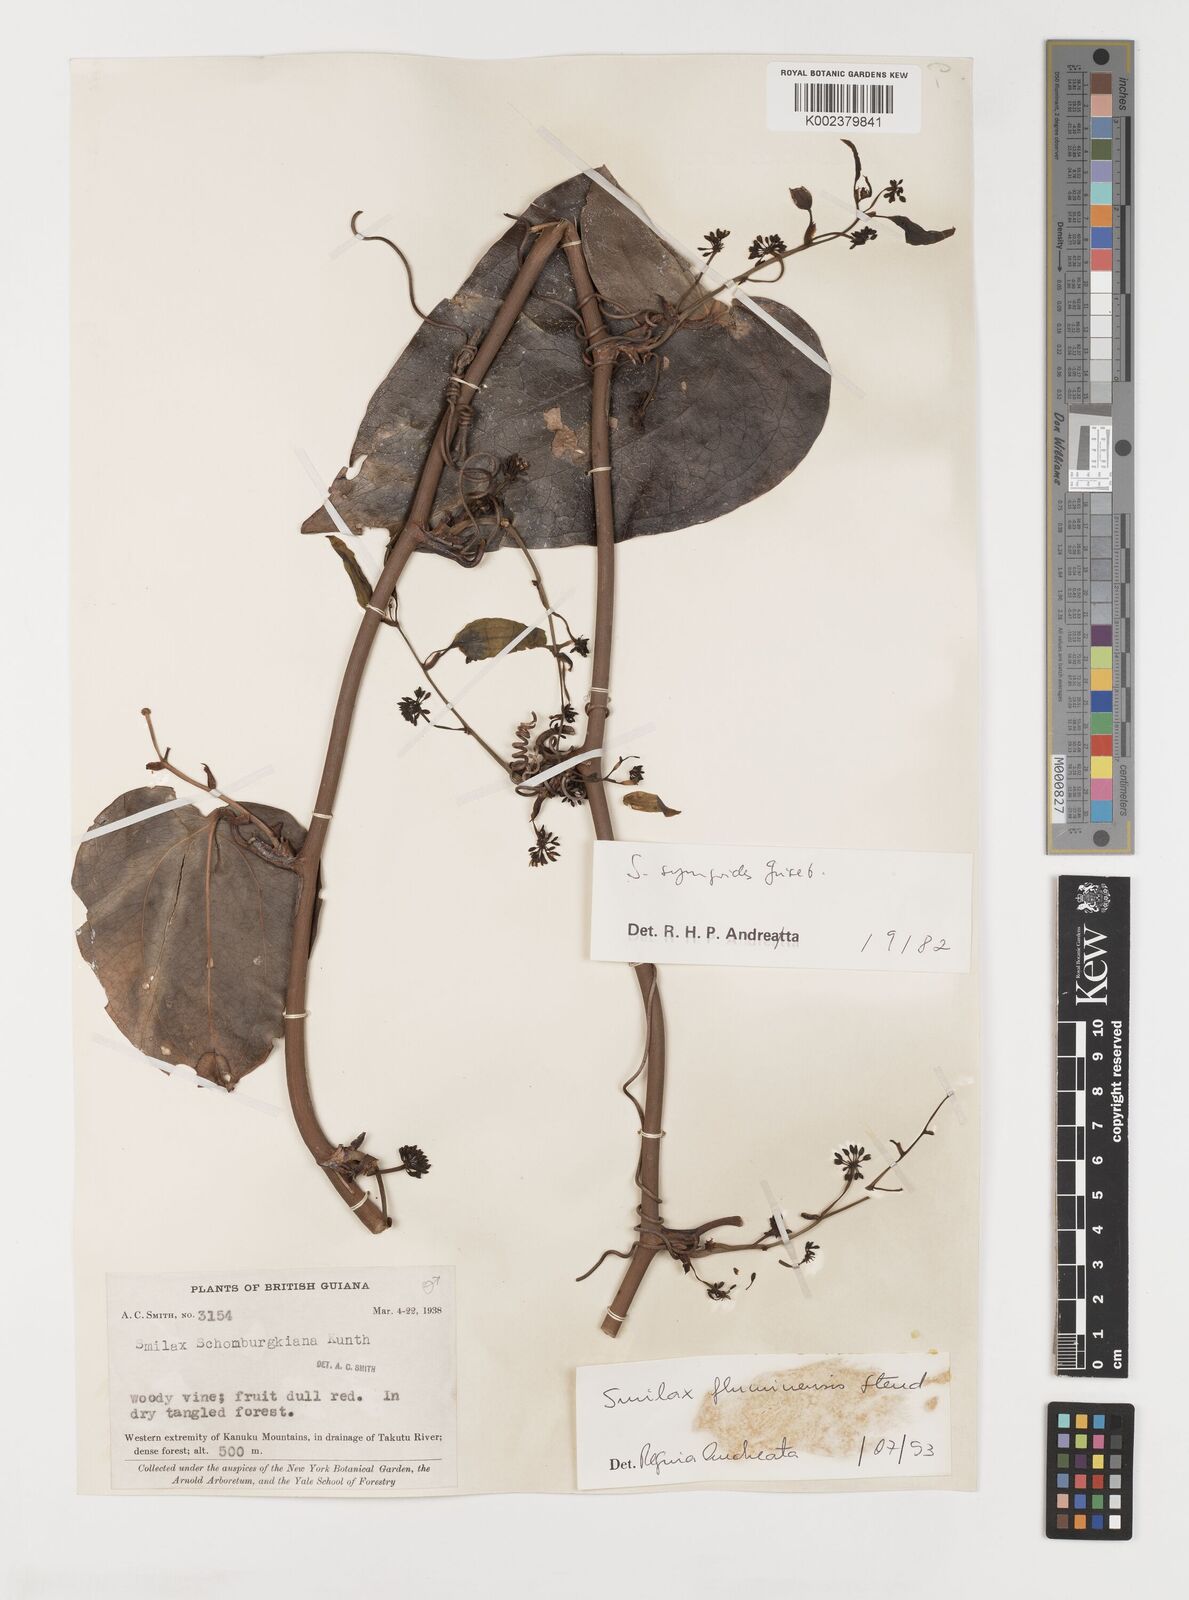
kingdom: Plantae
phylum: Tracheophyta
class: Liliopsida
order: Liliales
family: Smilacaceae
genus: Smilax
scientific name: Smilax fluminensis
